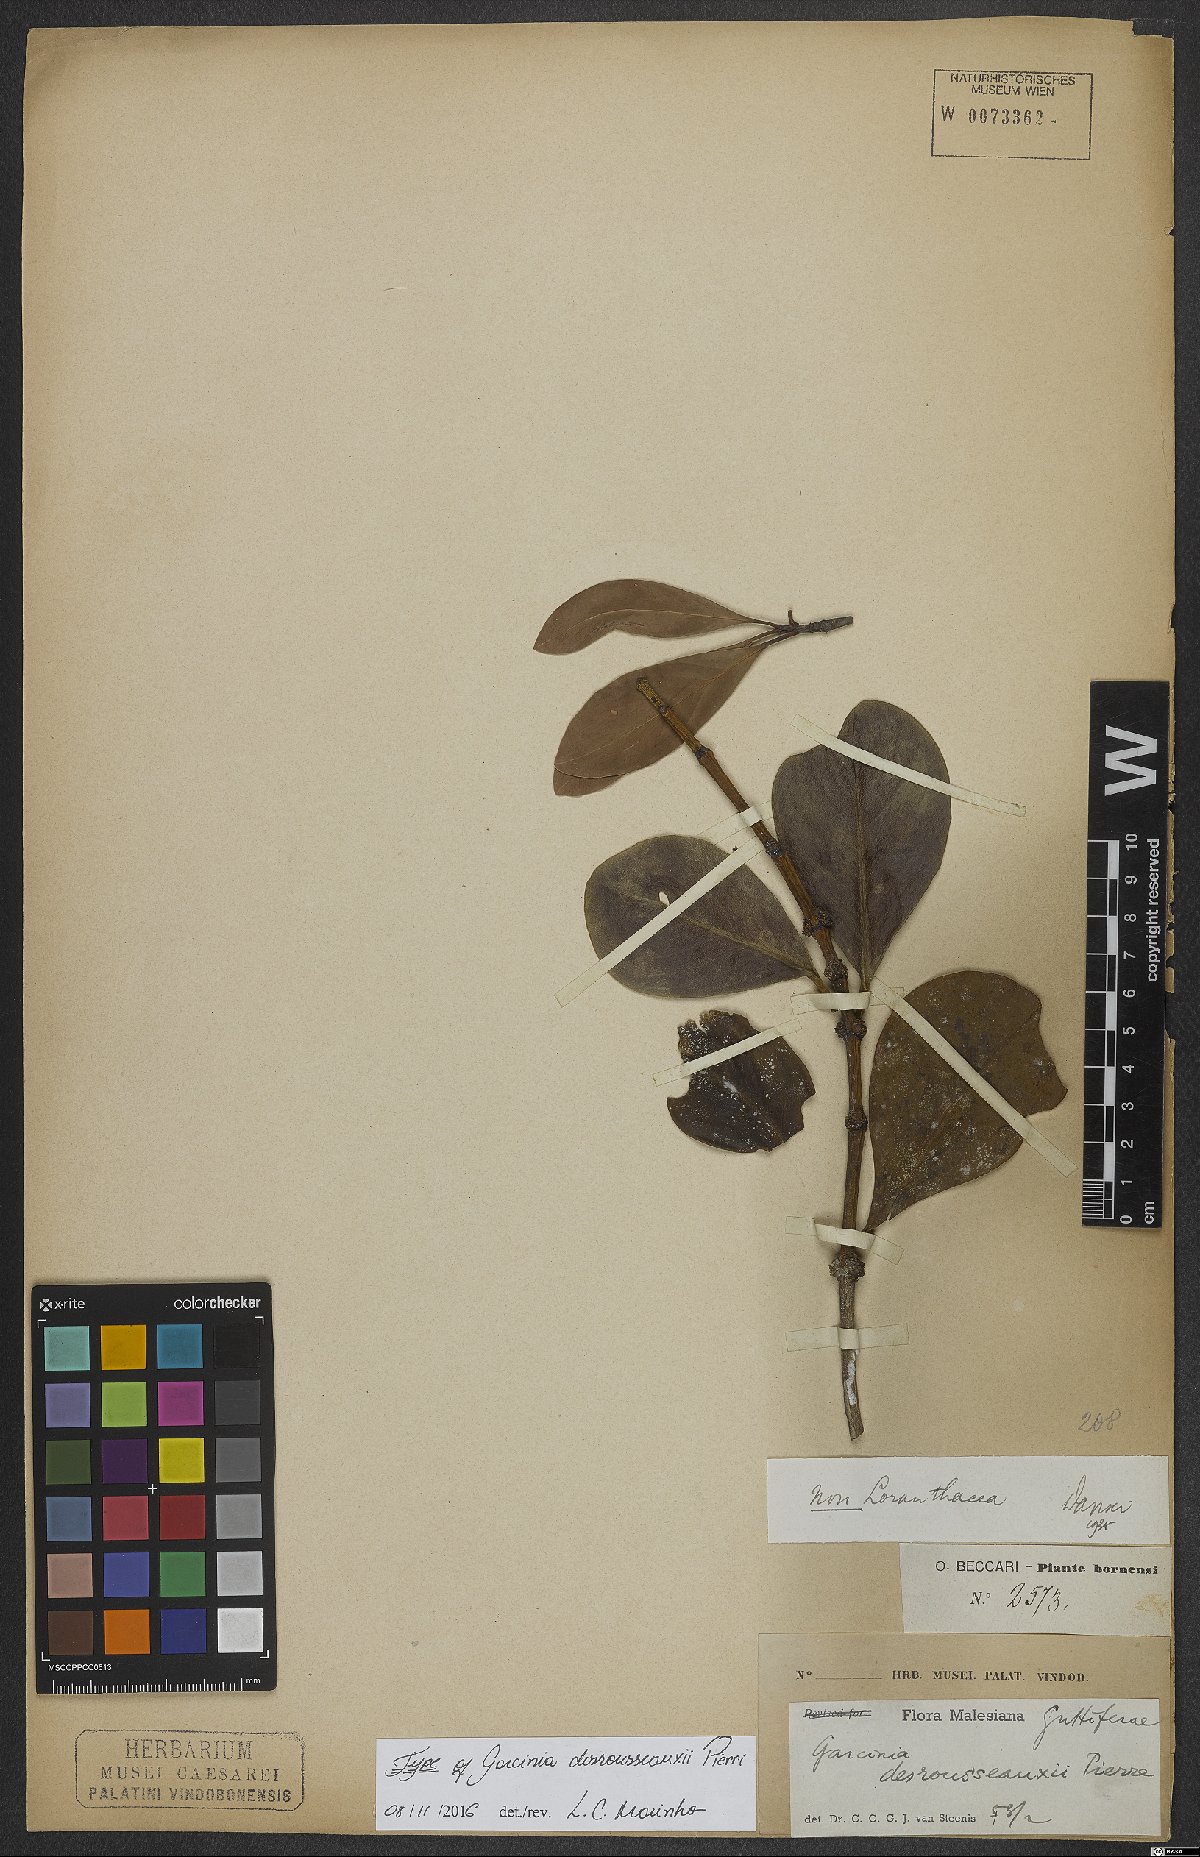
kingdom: Plantae
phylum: Tracheophyta
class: Magnoliopsida
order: Malpighiales
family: Clusiaceae
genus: Garcinia
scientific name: Garcinia desrousseauxii
